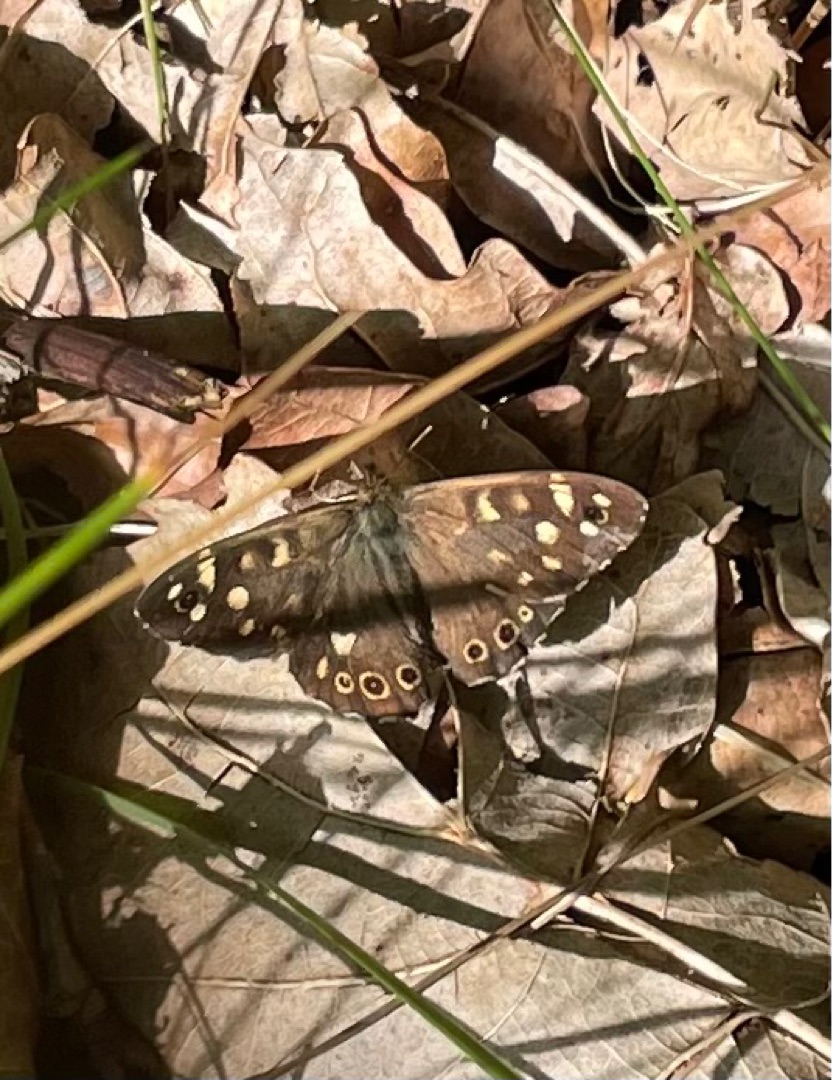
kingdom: Animalia
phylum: Arthropoda
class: Insecta
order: Lepidoptera
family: Nymphalidae
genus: Pararge
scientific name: Pararge aegeria
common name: Skovrandøje
